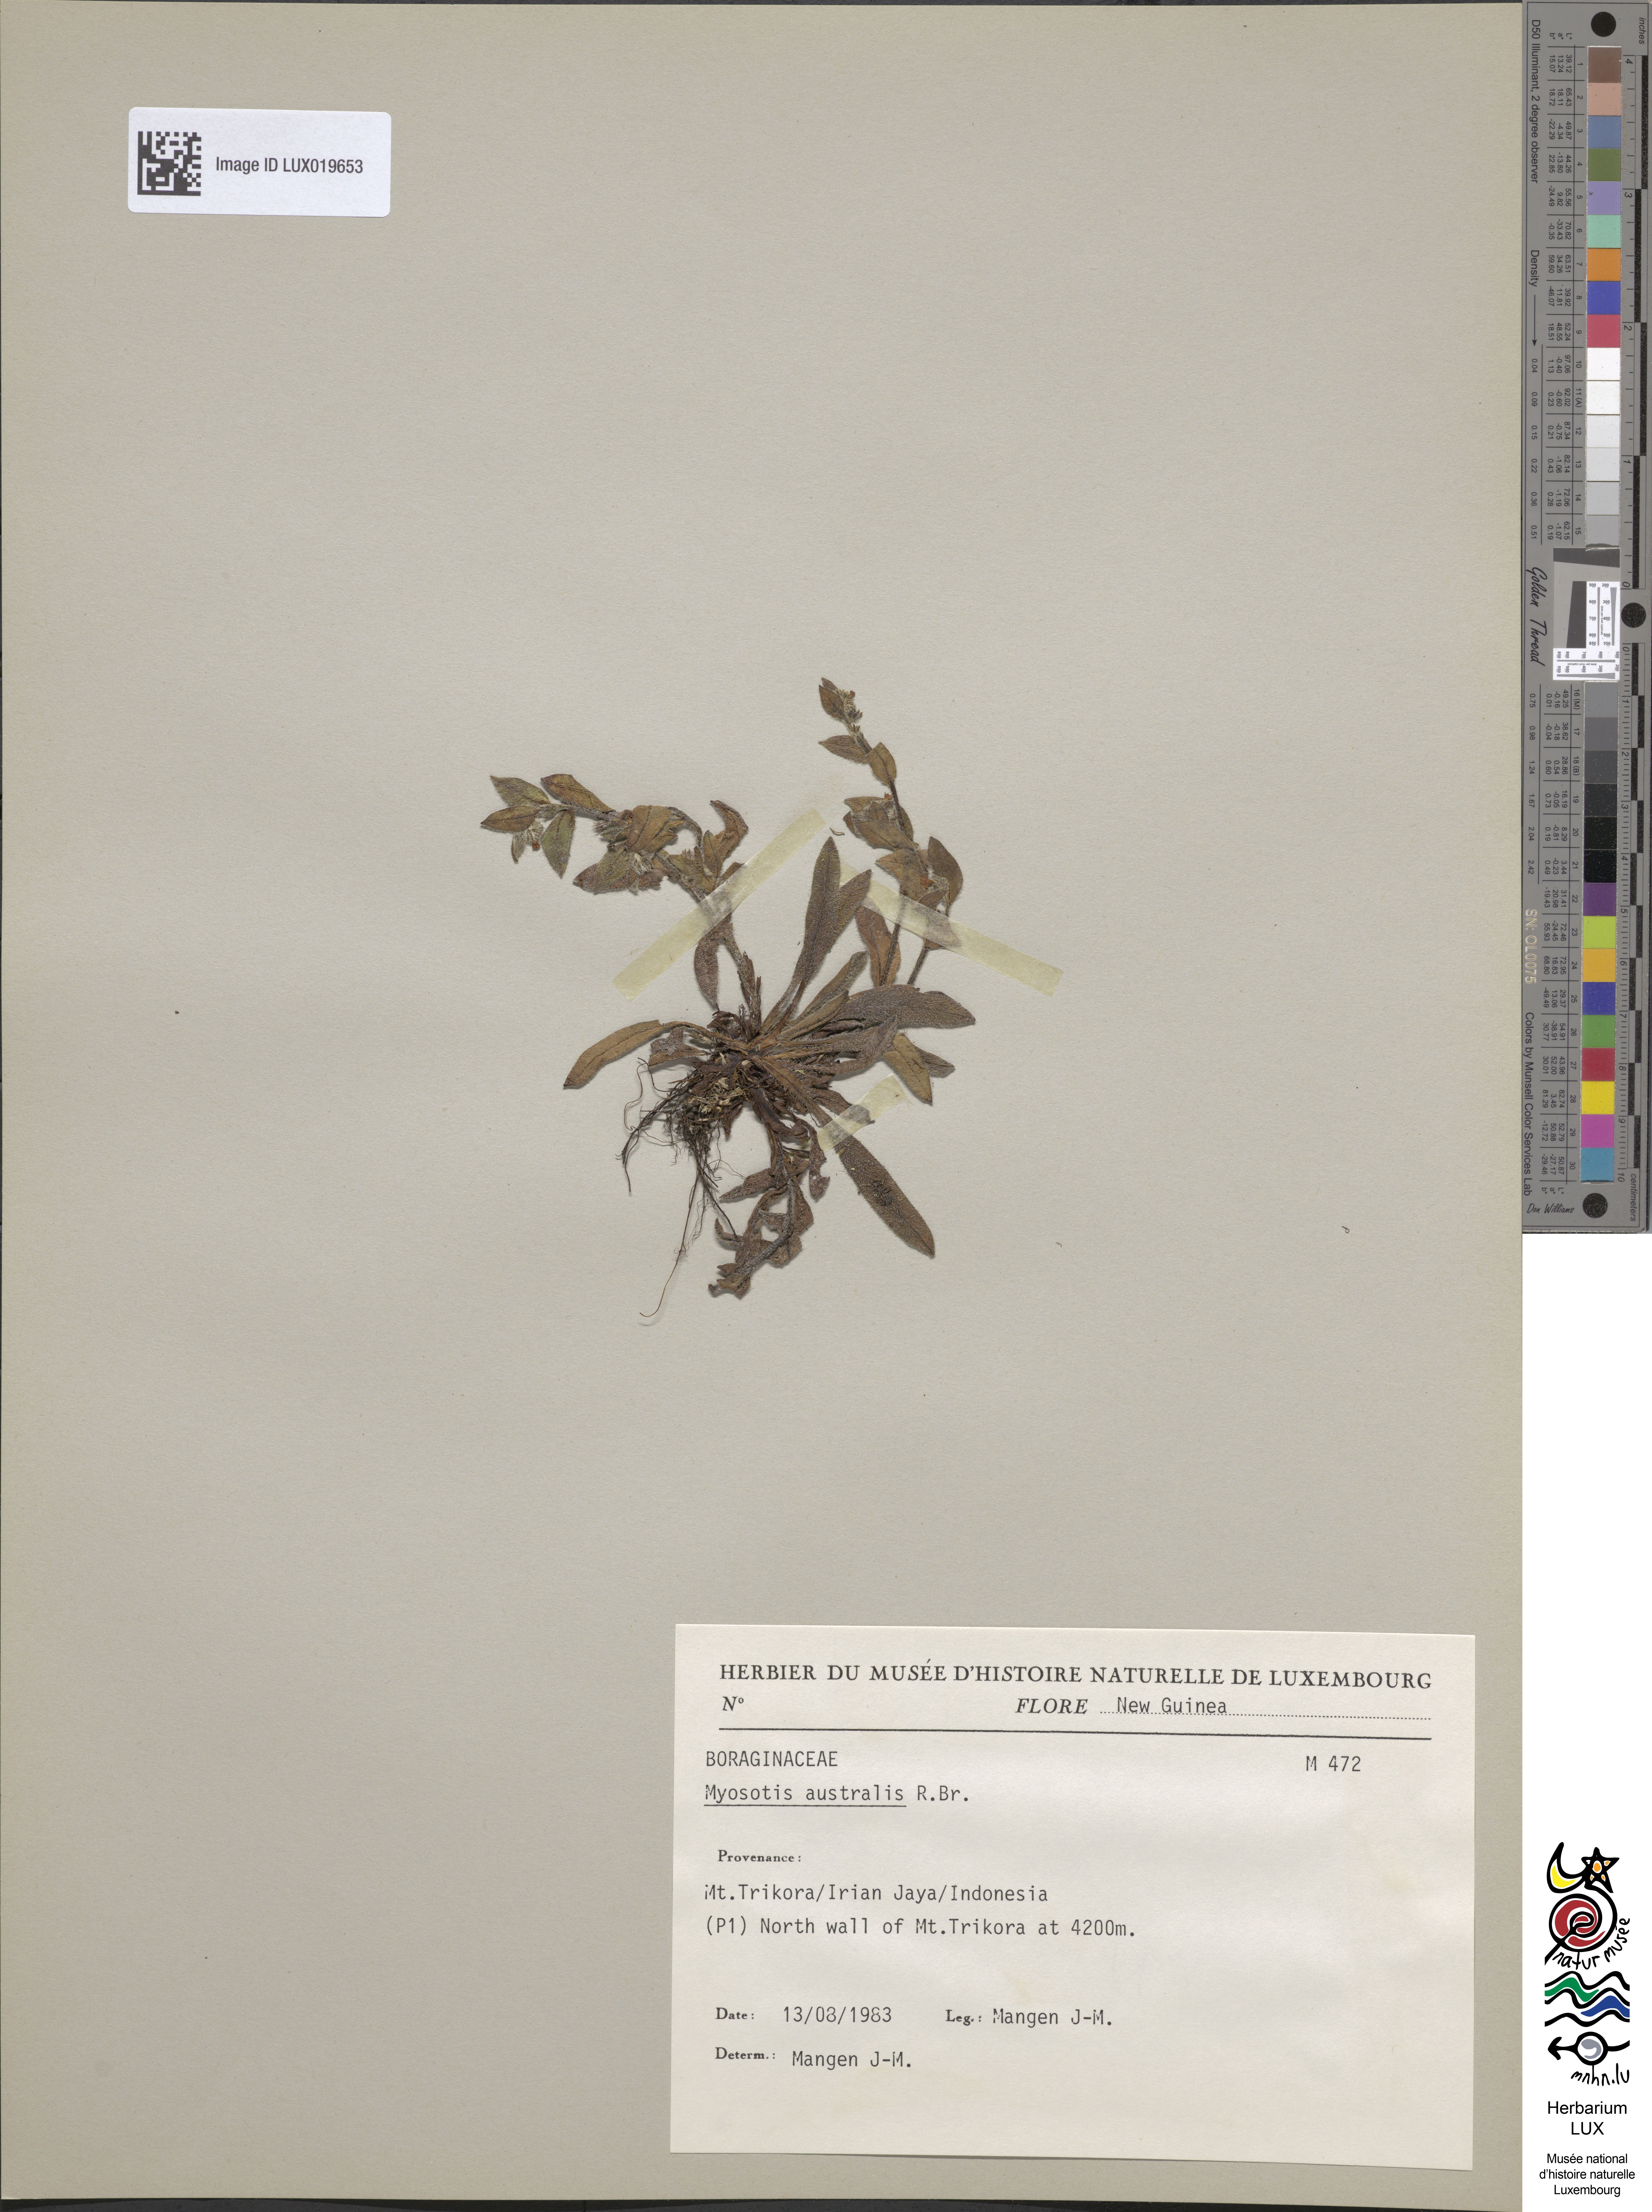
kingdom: Plantae
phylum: Tracheophyta
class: Magnoliopsida
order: Boraginales
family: Boraginaceae
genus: Myosotis
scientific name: Myosotis australis
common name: Australian forget-me-not
